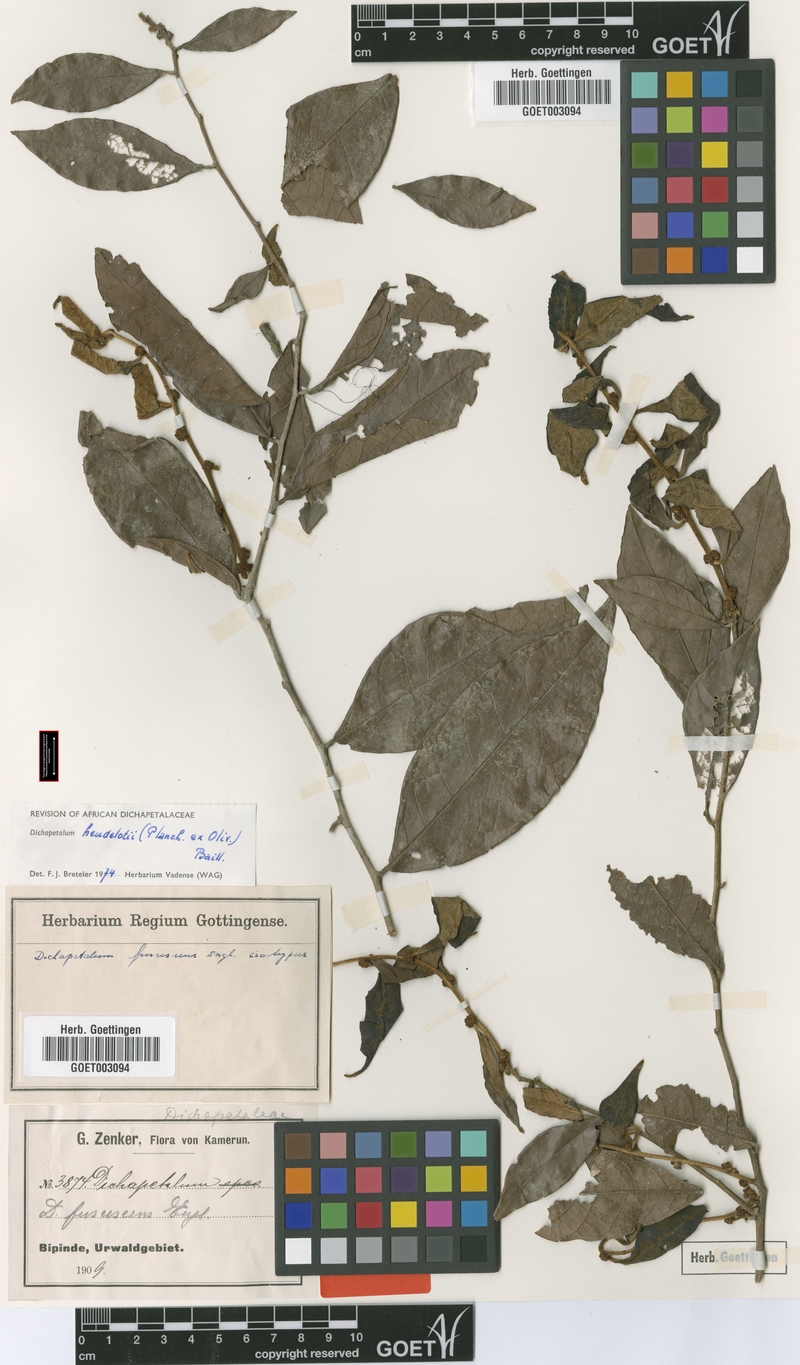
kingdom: Plantae
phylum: Tracheophyta
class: Magnoliopsida
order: Malpighiales
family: Dichapetalaceae
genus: Dichapetalum
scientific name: Dichapetalum heudelotii
